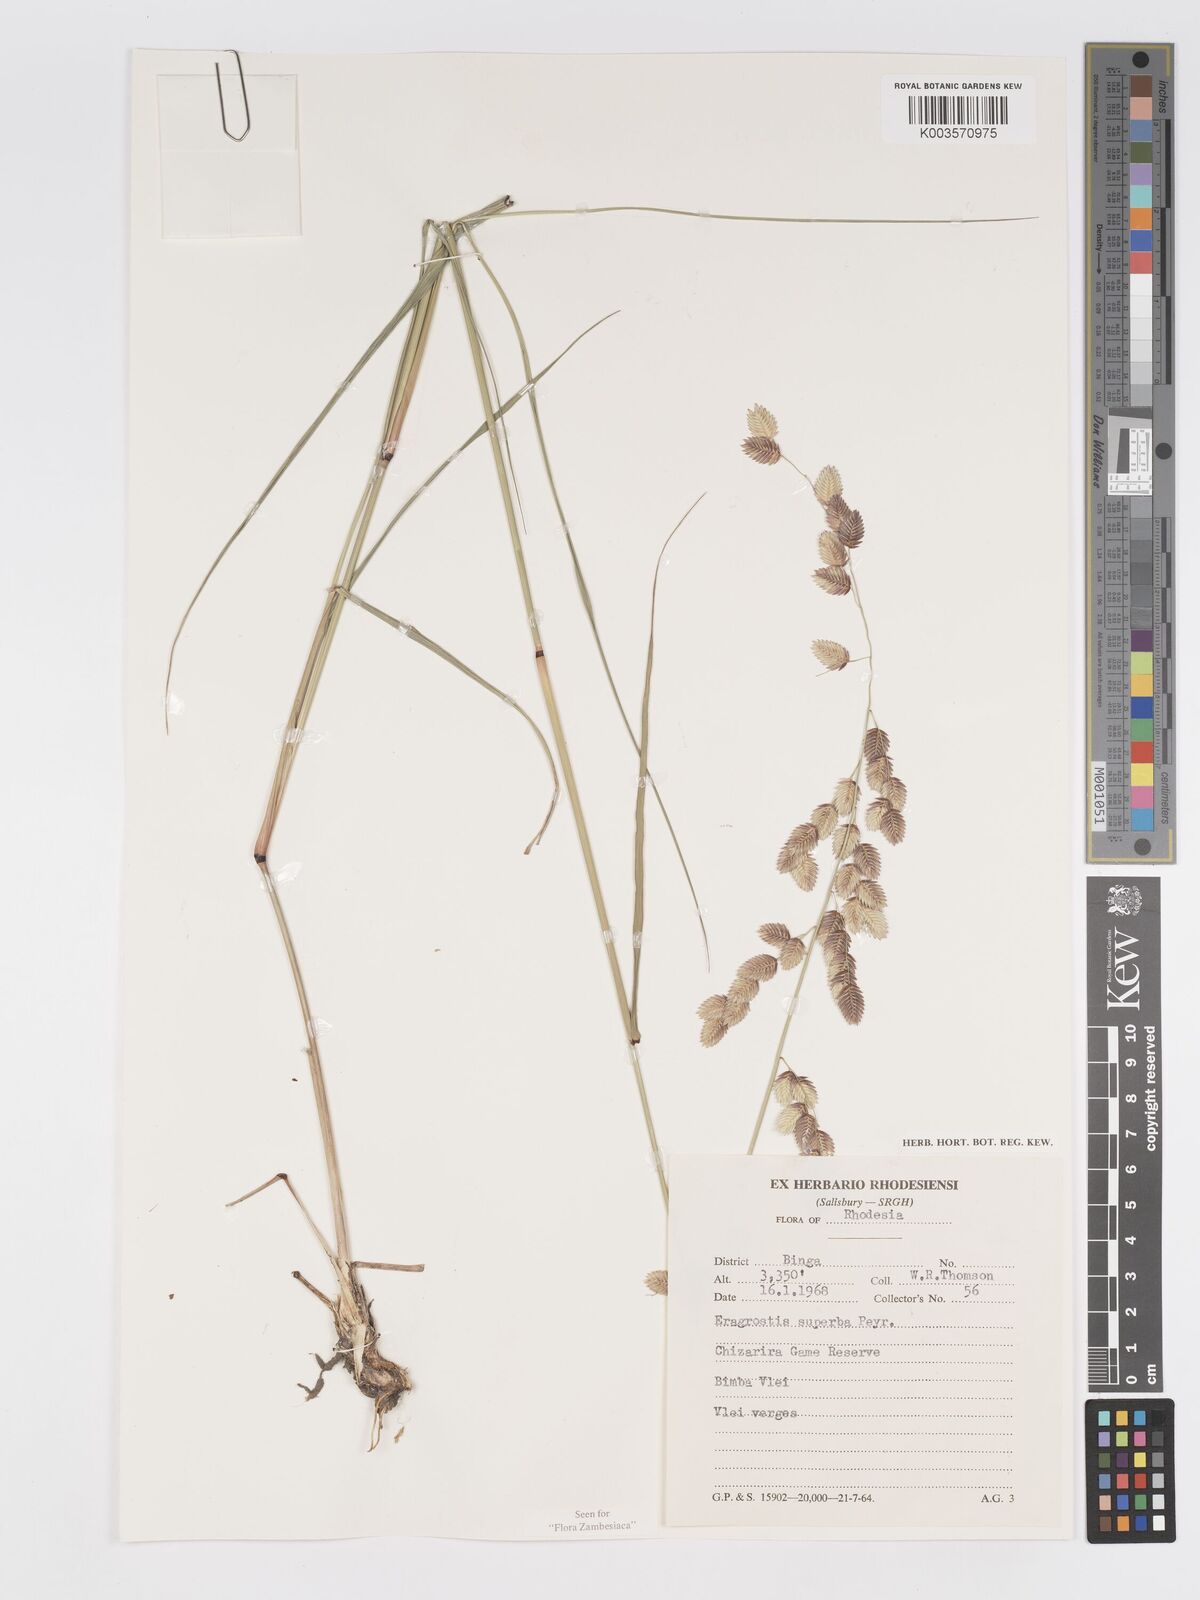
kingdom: Plantae
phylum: Tracheophyta
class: Liliopsida
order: Poales
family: Poaceae
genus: Eragrostis
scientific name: Eragrostis superba
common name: Wilman lovegrass
